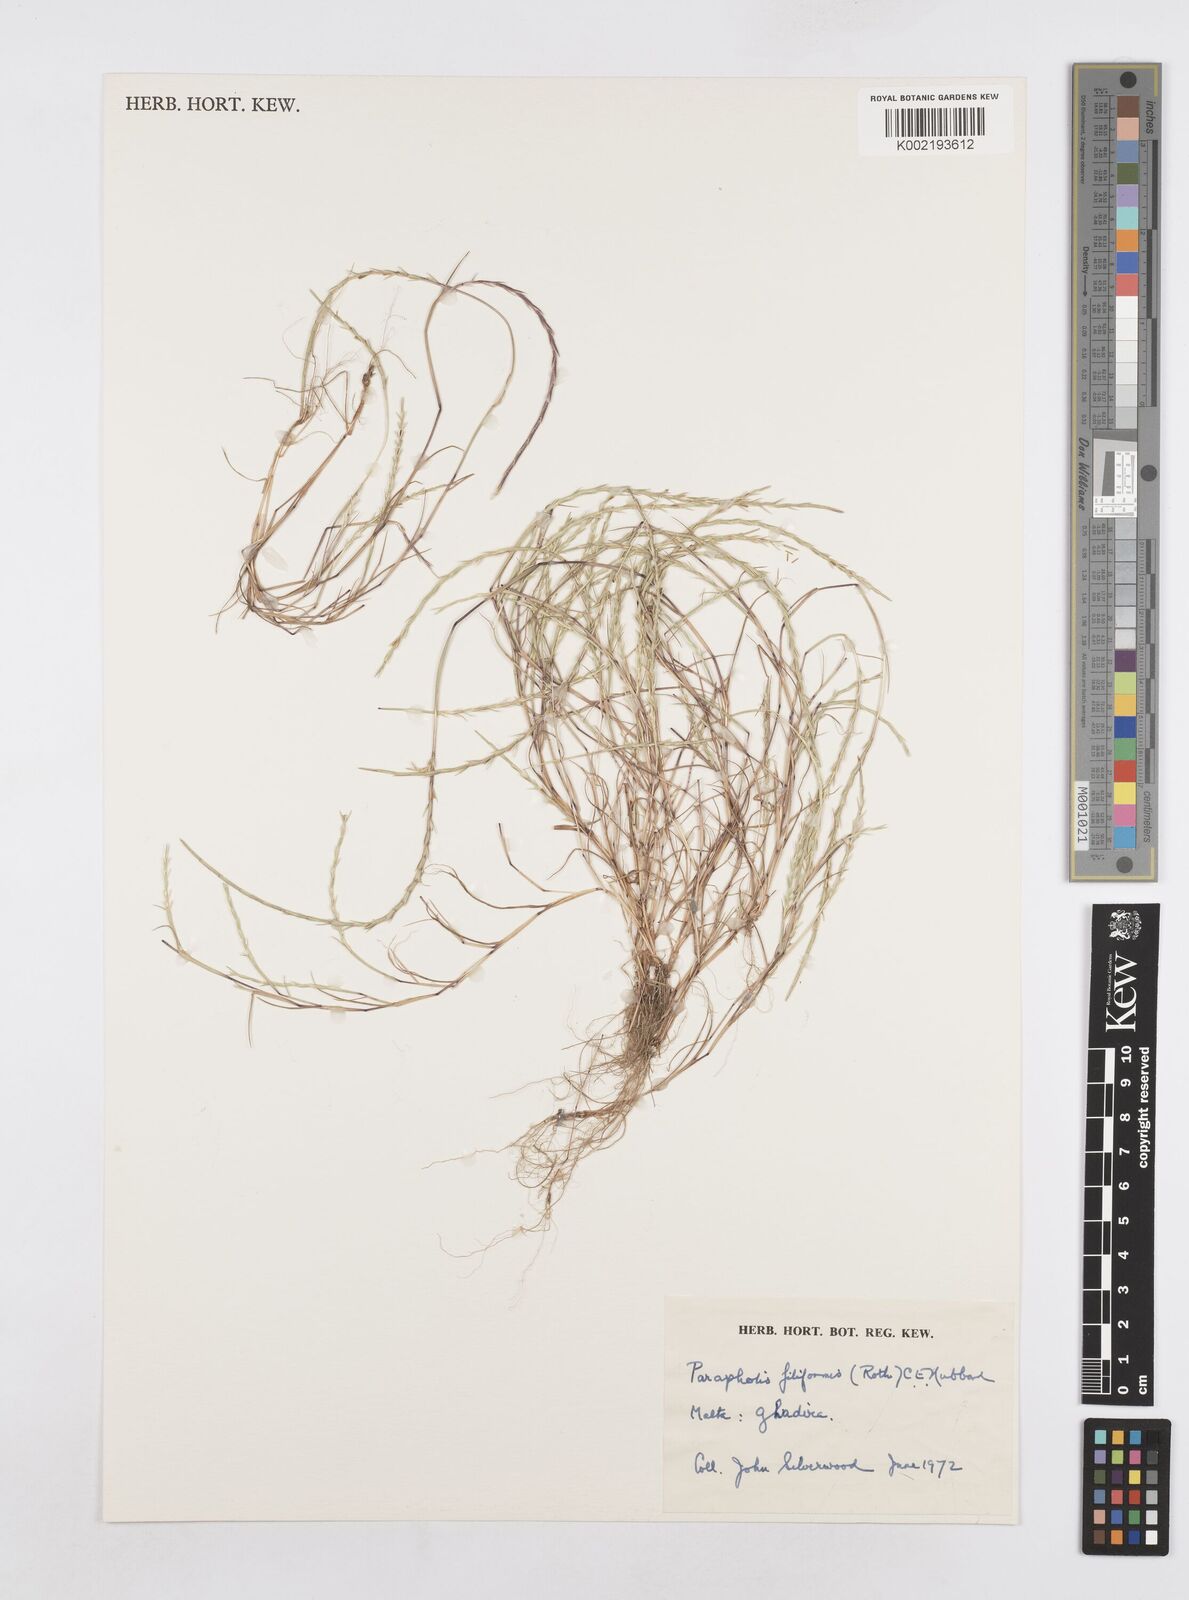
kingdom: Plantae
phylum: Tracheophyta
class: Liliopsida
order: Poales
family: Poaceae
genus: Parapholis
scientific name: Parapholis filiformis
